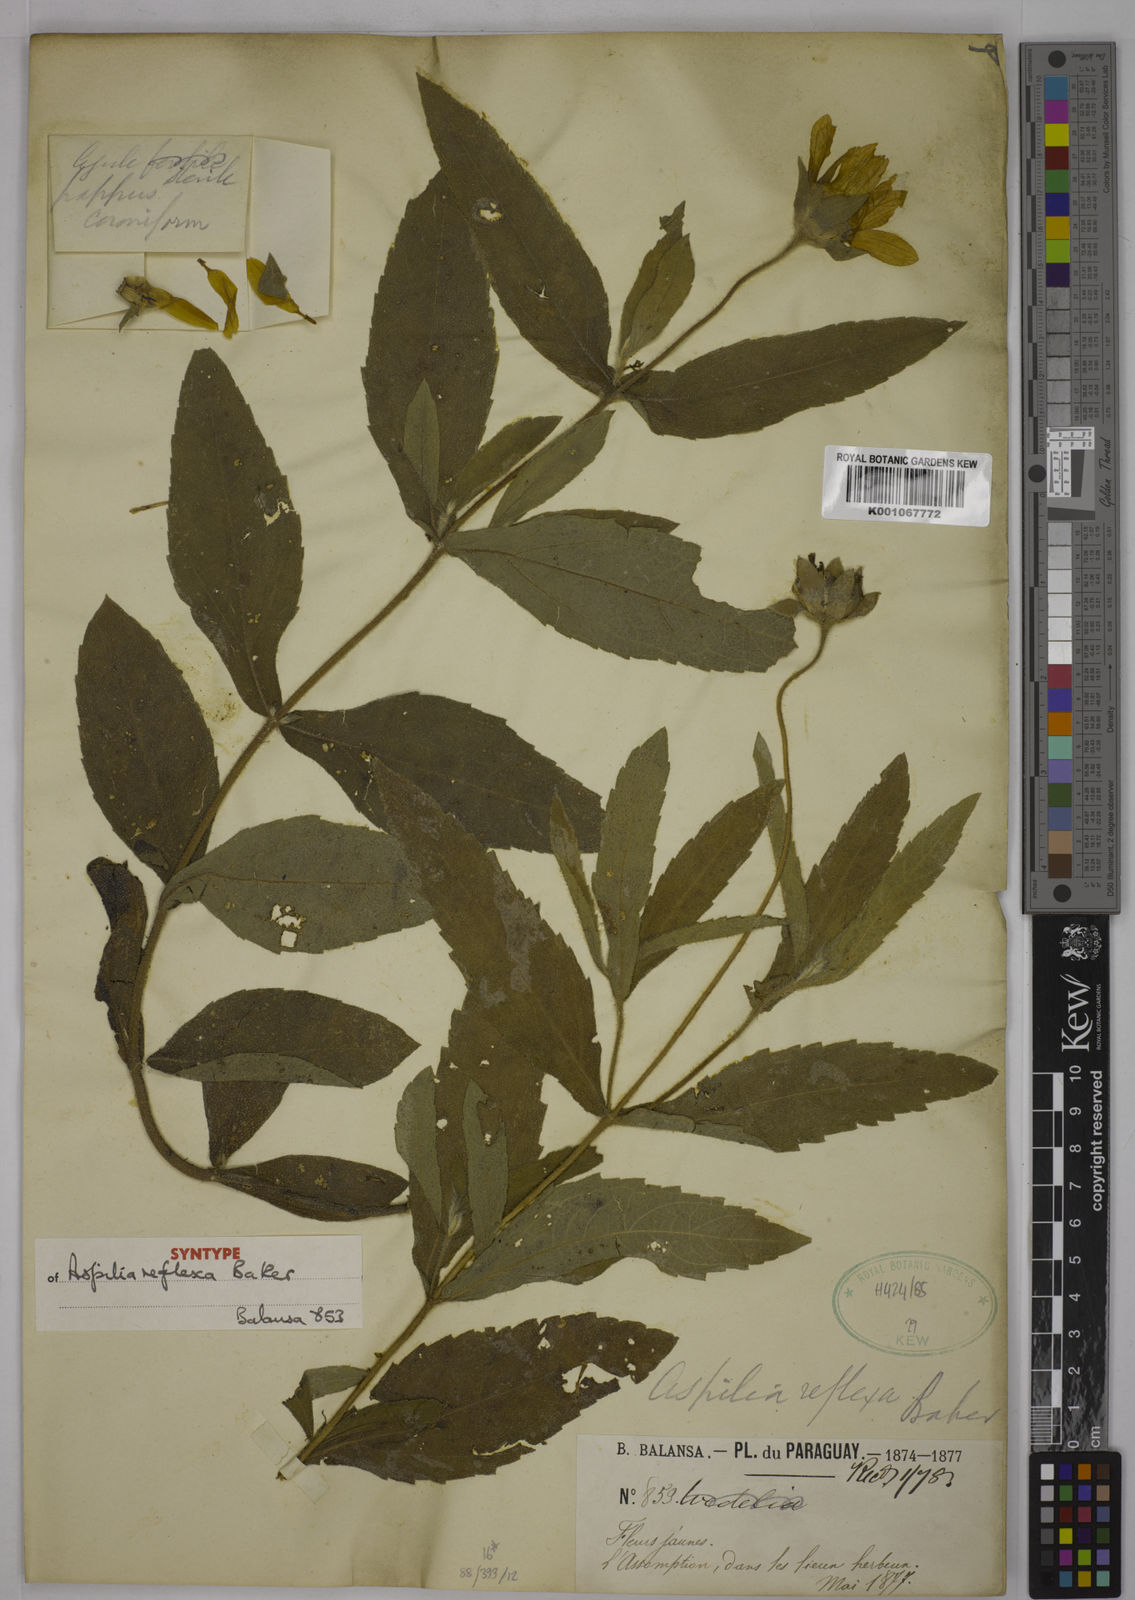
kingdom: Plantae
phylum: Tracheophyta
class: Magnoliopsida
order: Asterales
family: Asteraceae
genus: Wedelia
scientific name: Wedelia reflexa
